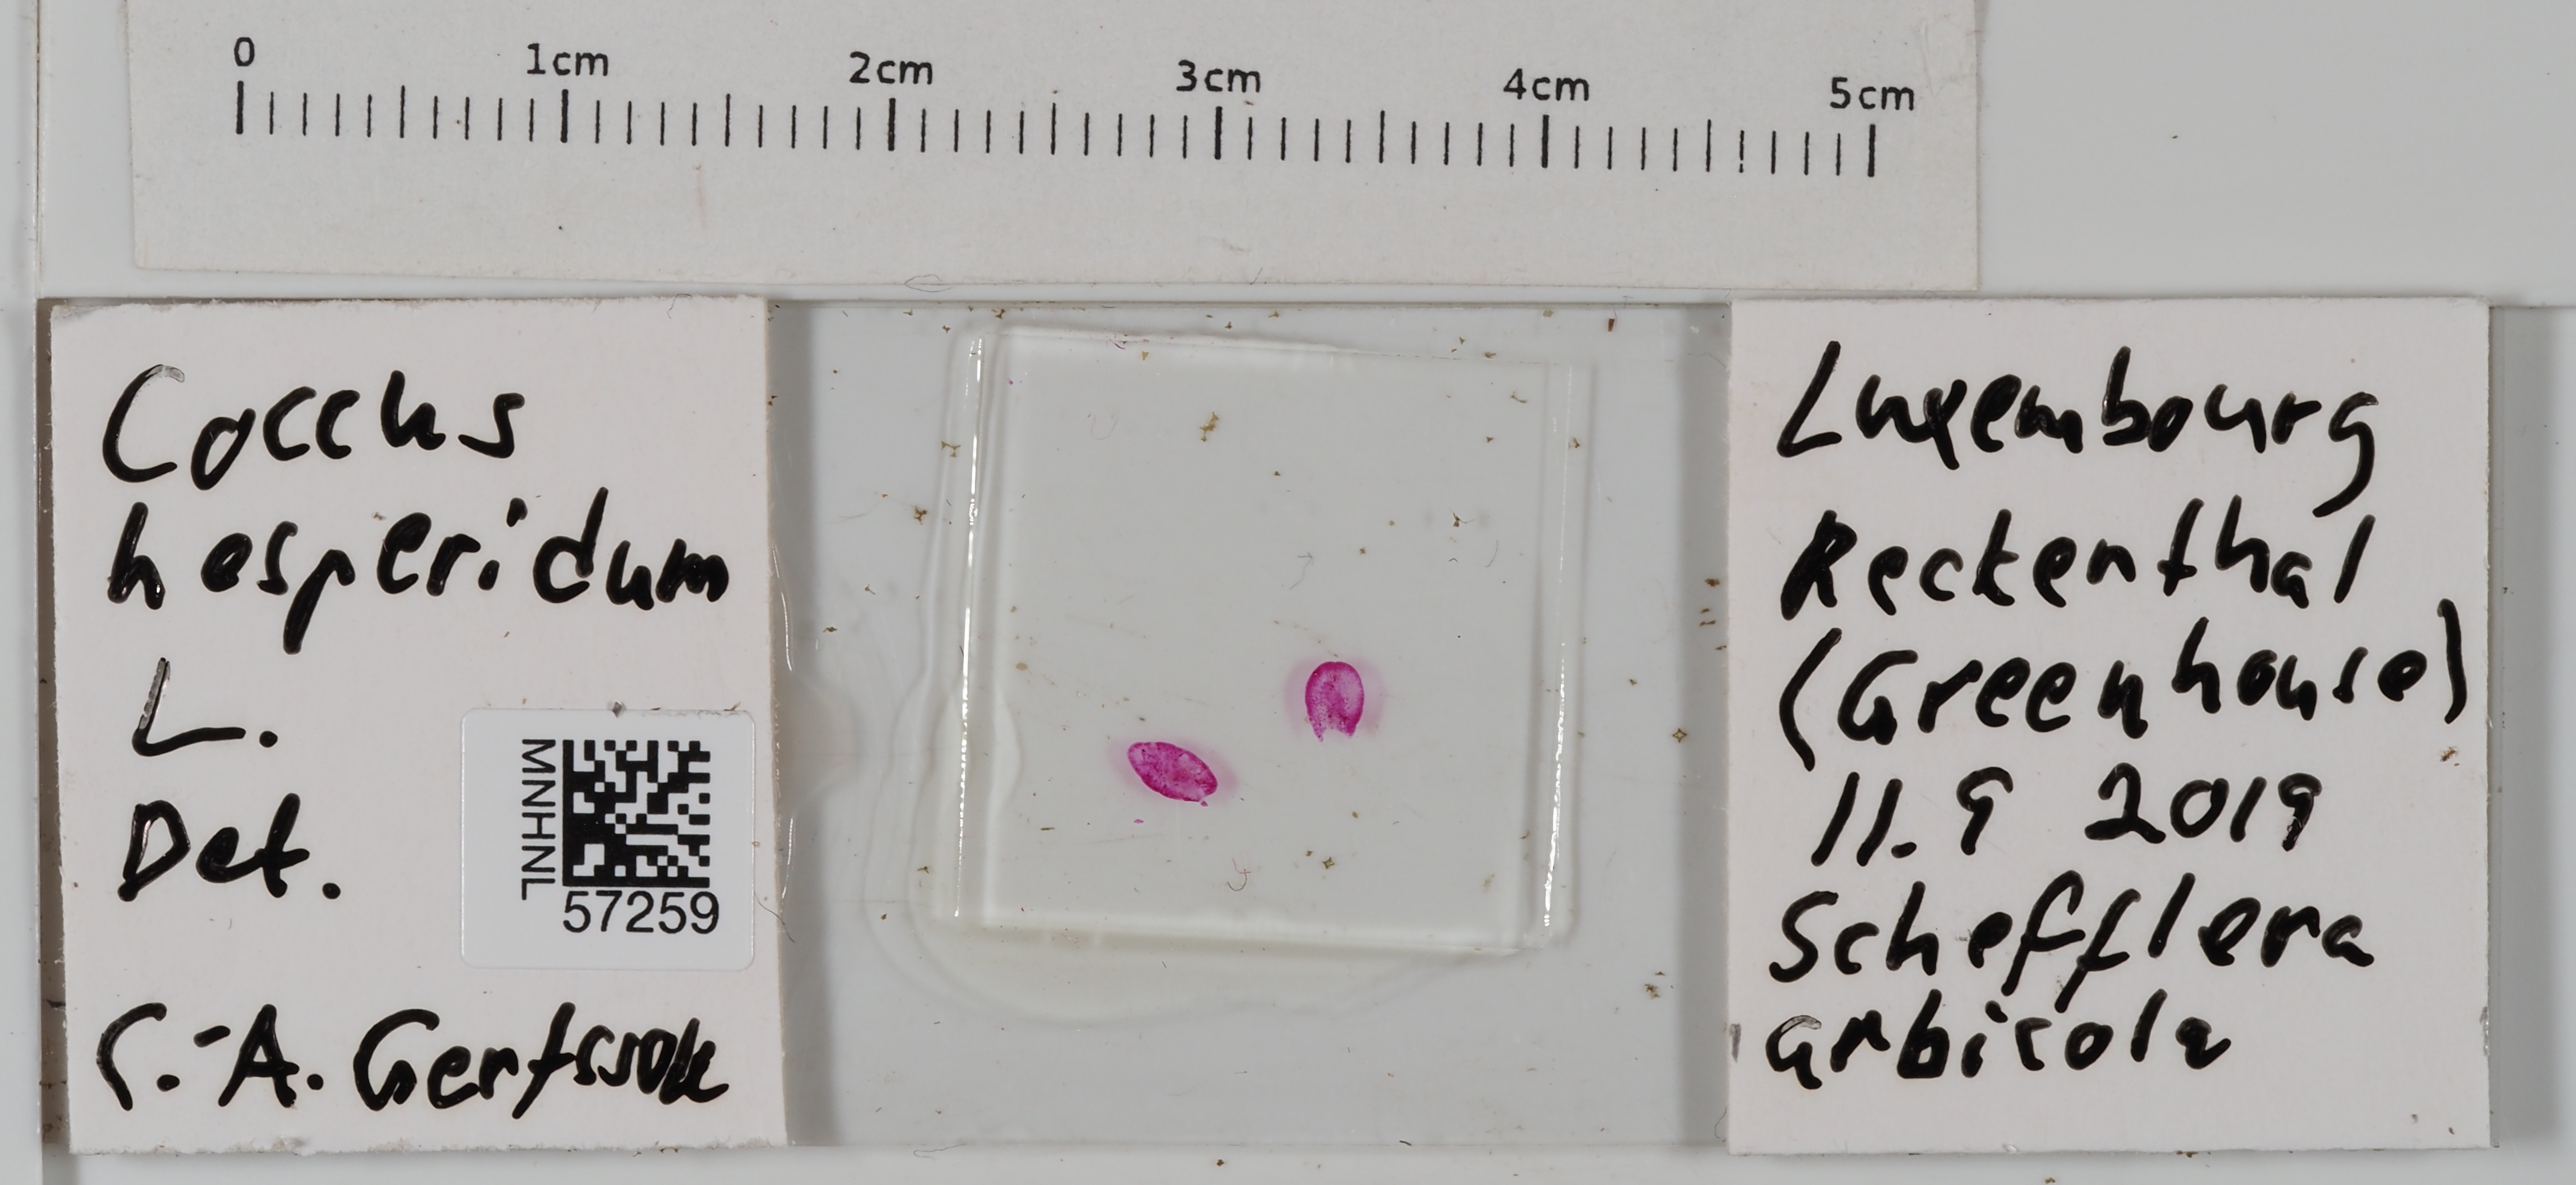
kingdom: Animalia
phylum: Arthropoda
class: Insecta
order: Hemiptera
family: Coccidae
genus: Coccus
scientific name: Coccus hesperidum
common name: Soft brown scale
